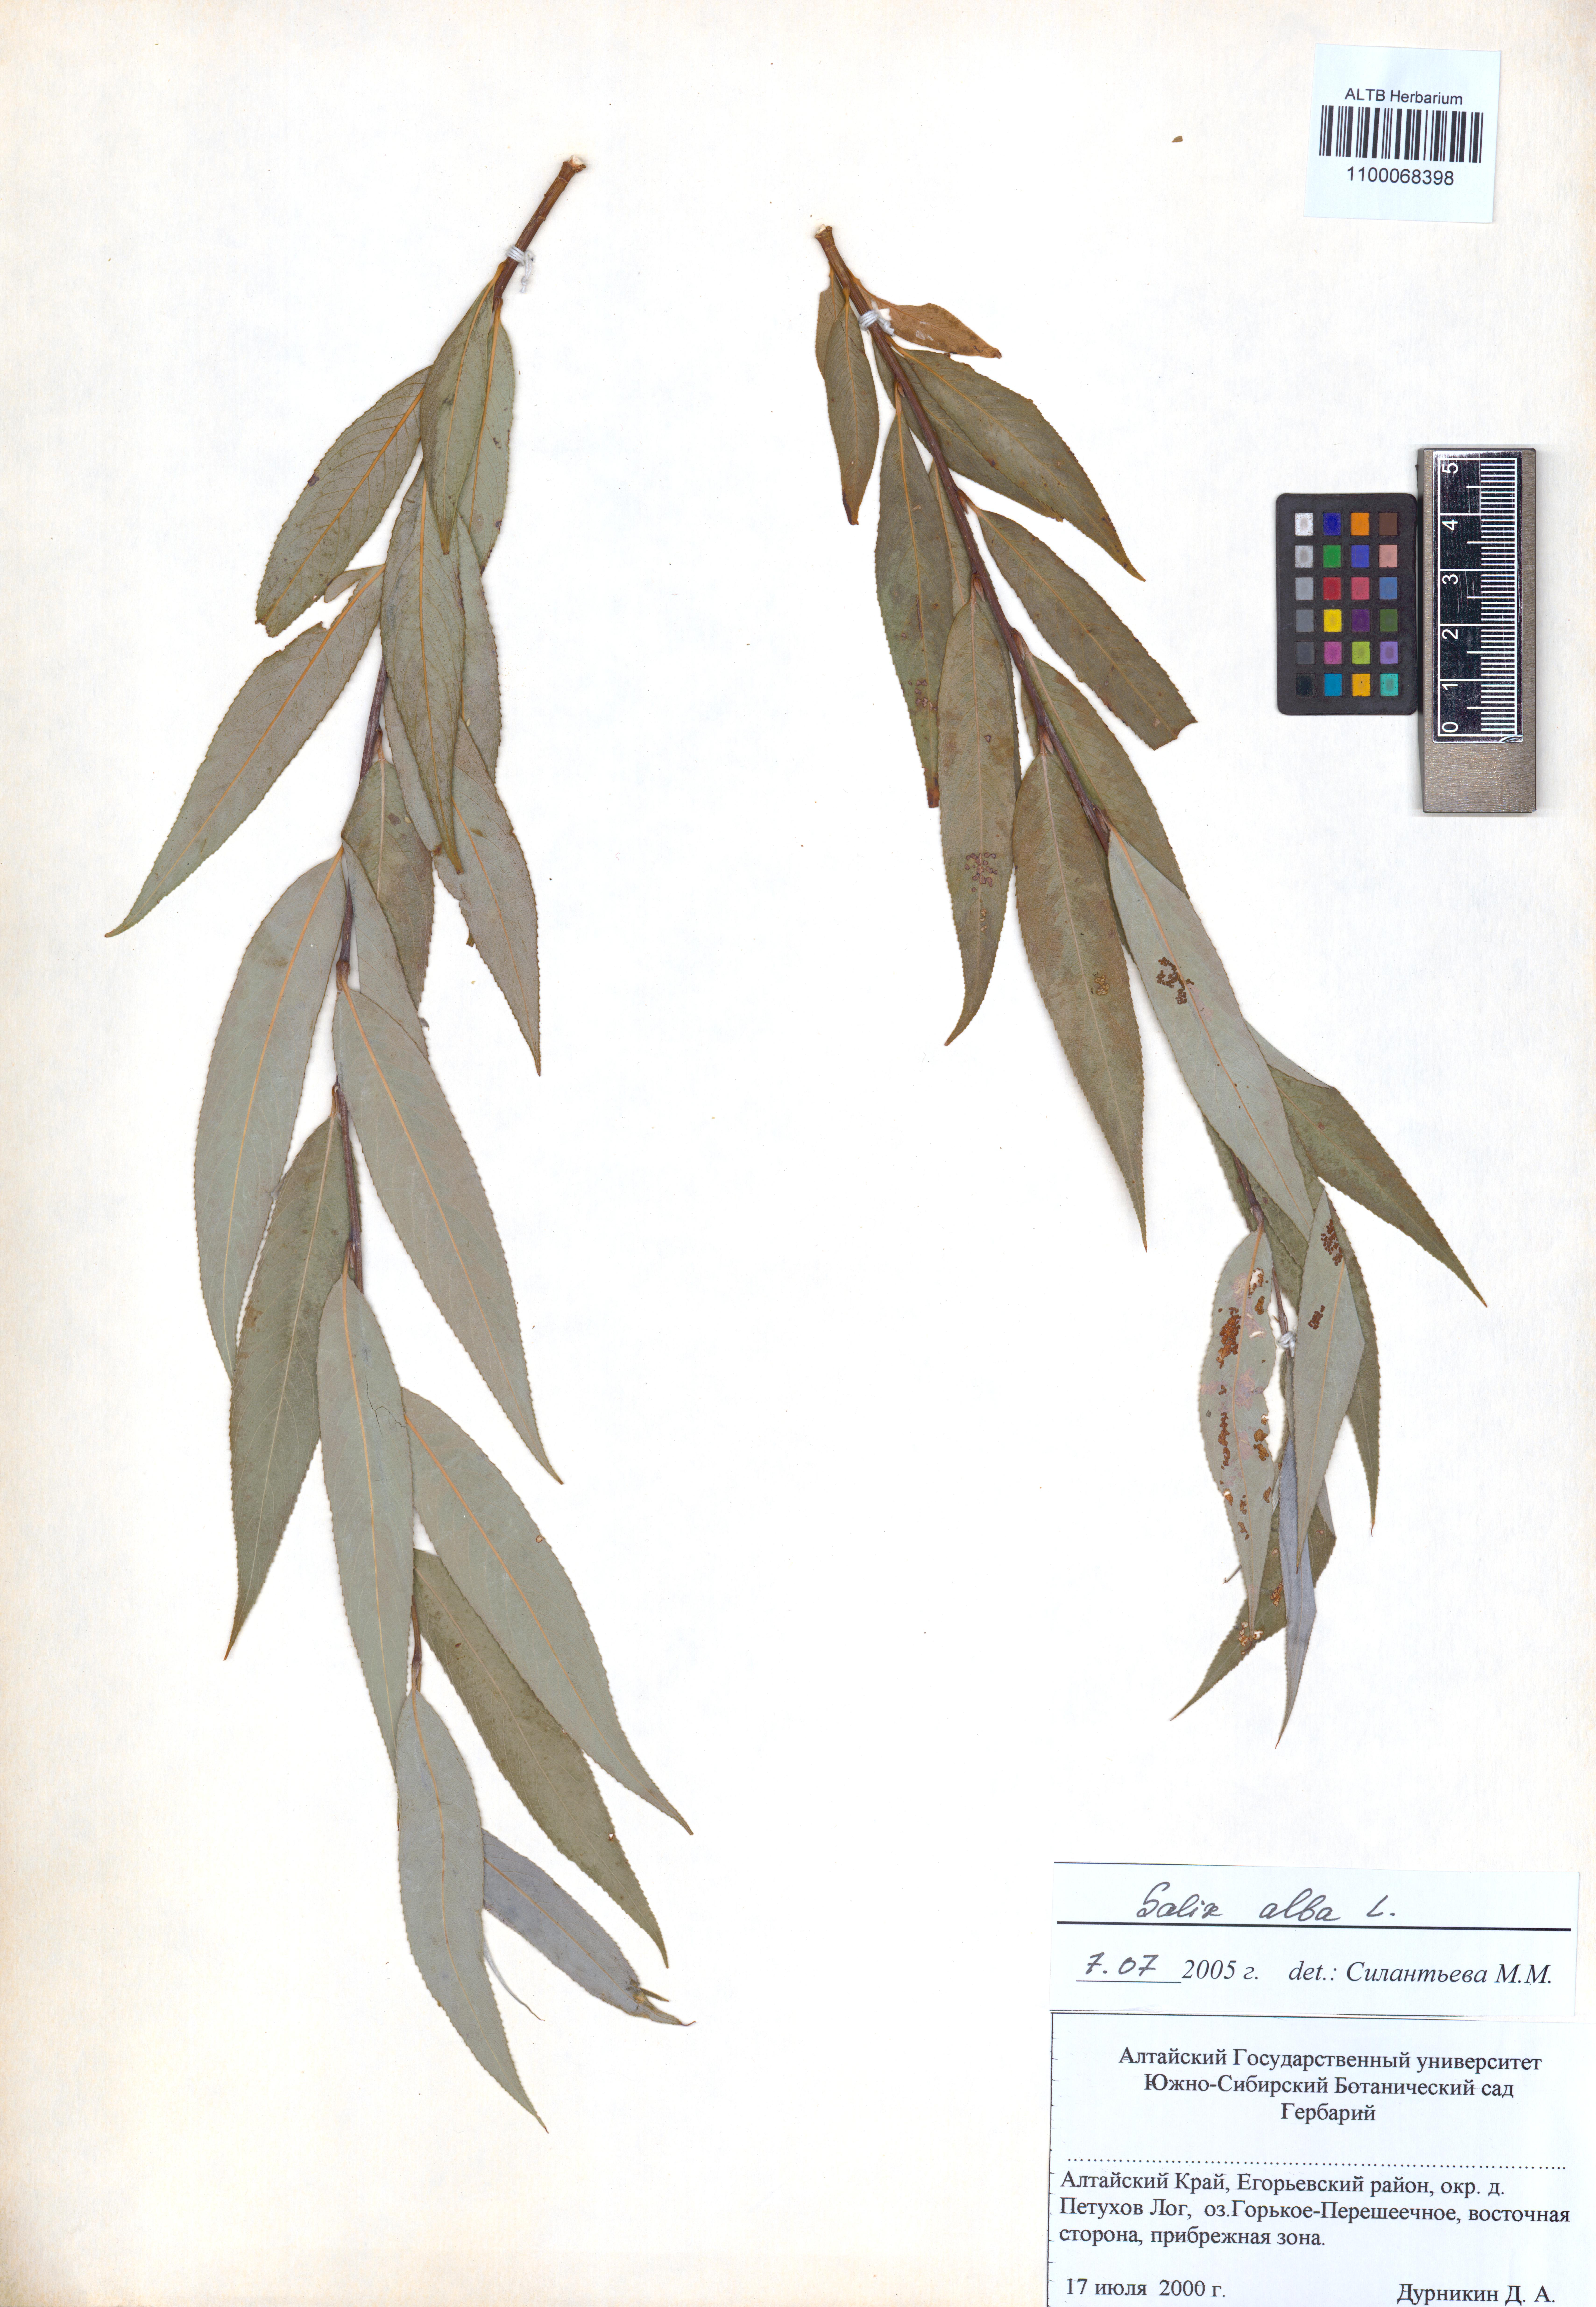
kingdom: Plantae
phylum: Tracheophyta
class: Magnoliopsida
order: Malpighiales
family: Salicaceae
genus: Salix
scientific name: Salix alba
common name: White willow
